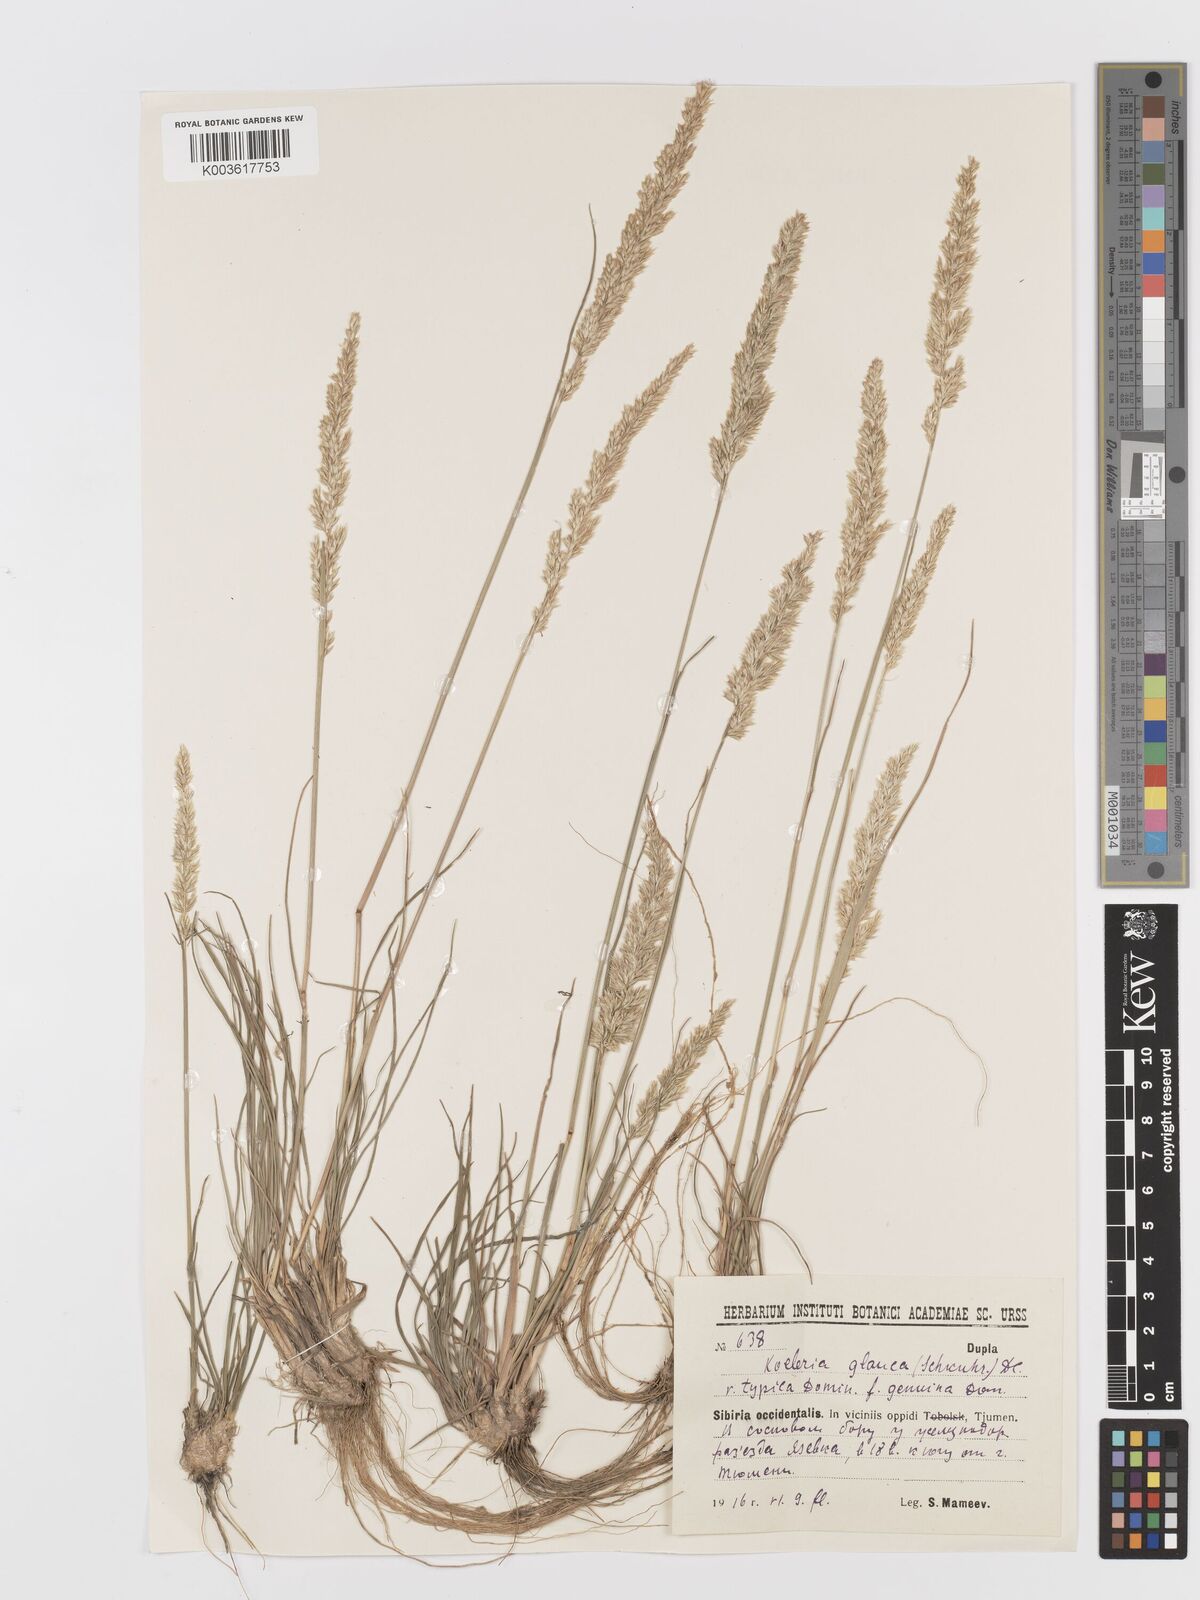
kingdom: Plantae
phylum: Tracheophyta
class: Liliopsida
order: Poales
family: Poaceae
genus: Koeleria
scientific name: Koeleria glauca
